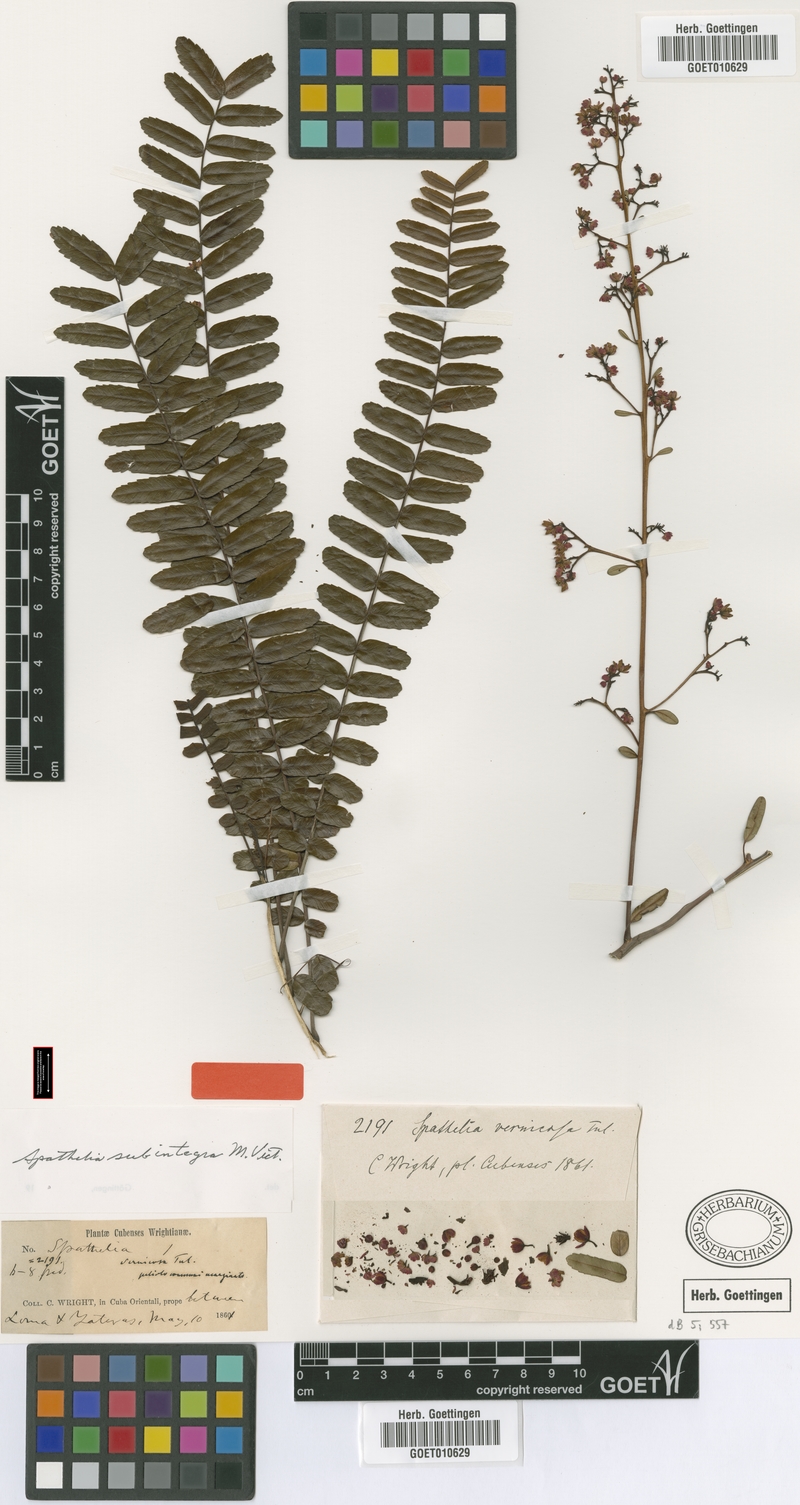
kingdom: Plantae
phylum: Tracheophyta
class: Magnoliopsida
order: Sapindales
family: Rutaceae
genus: Spathelia
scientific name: Spathelia subintegra
